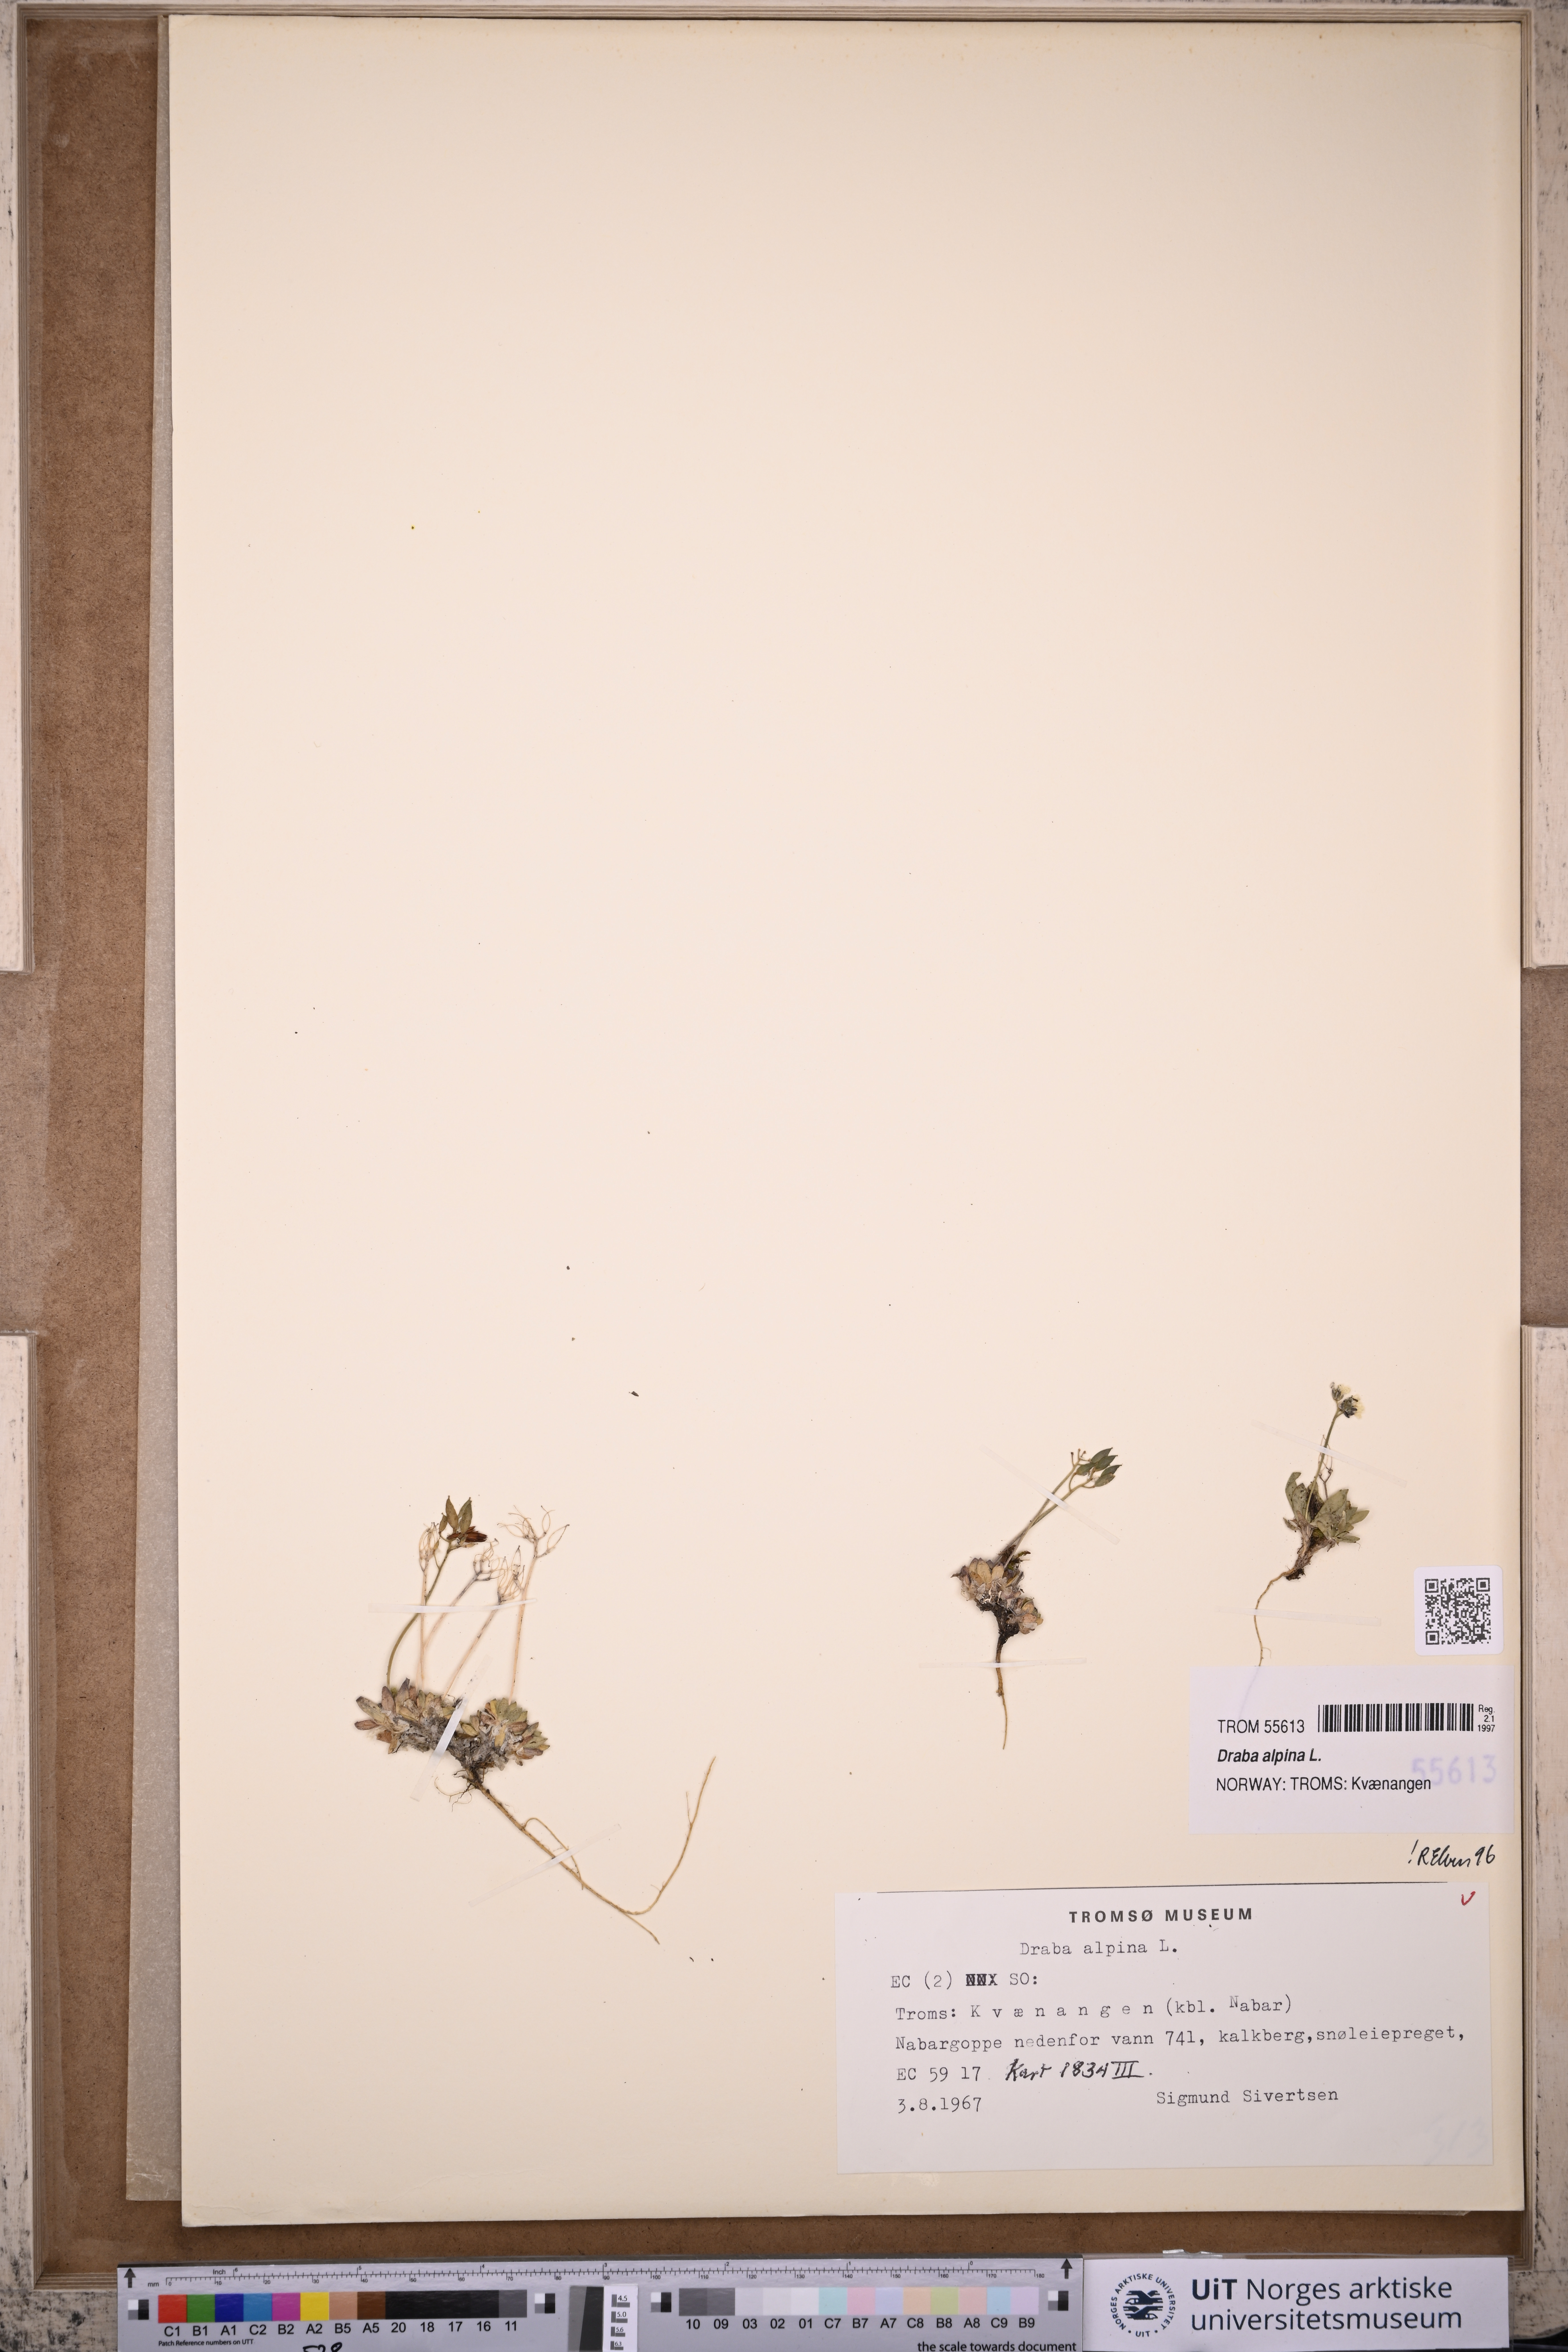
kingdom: Plantae
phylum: Tracheophyta
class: Magnoliopsida
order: Brassicales
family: Brassicaceae
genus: Draba
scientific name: Draba alpina
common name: Alpine draba
